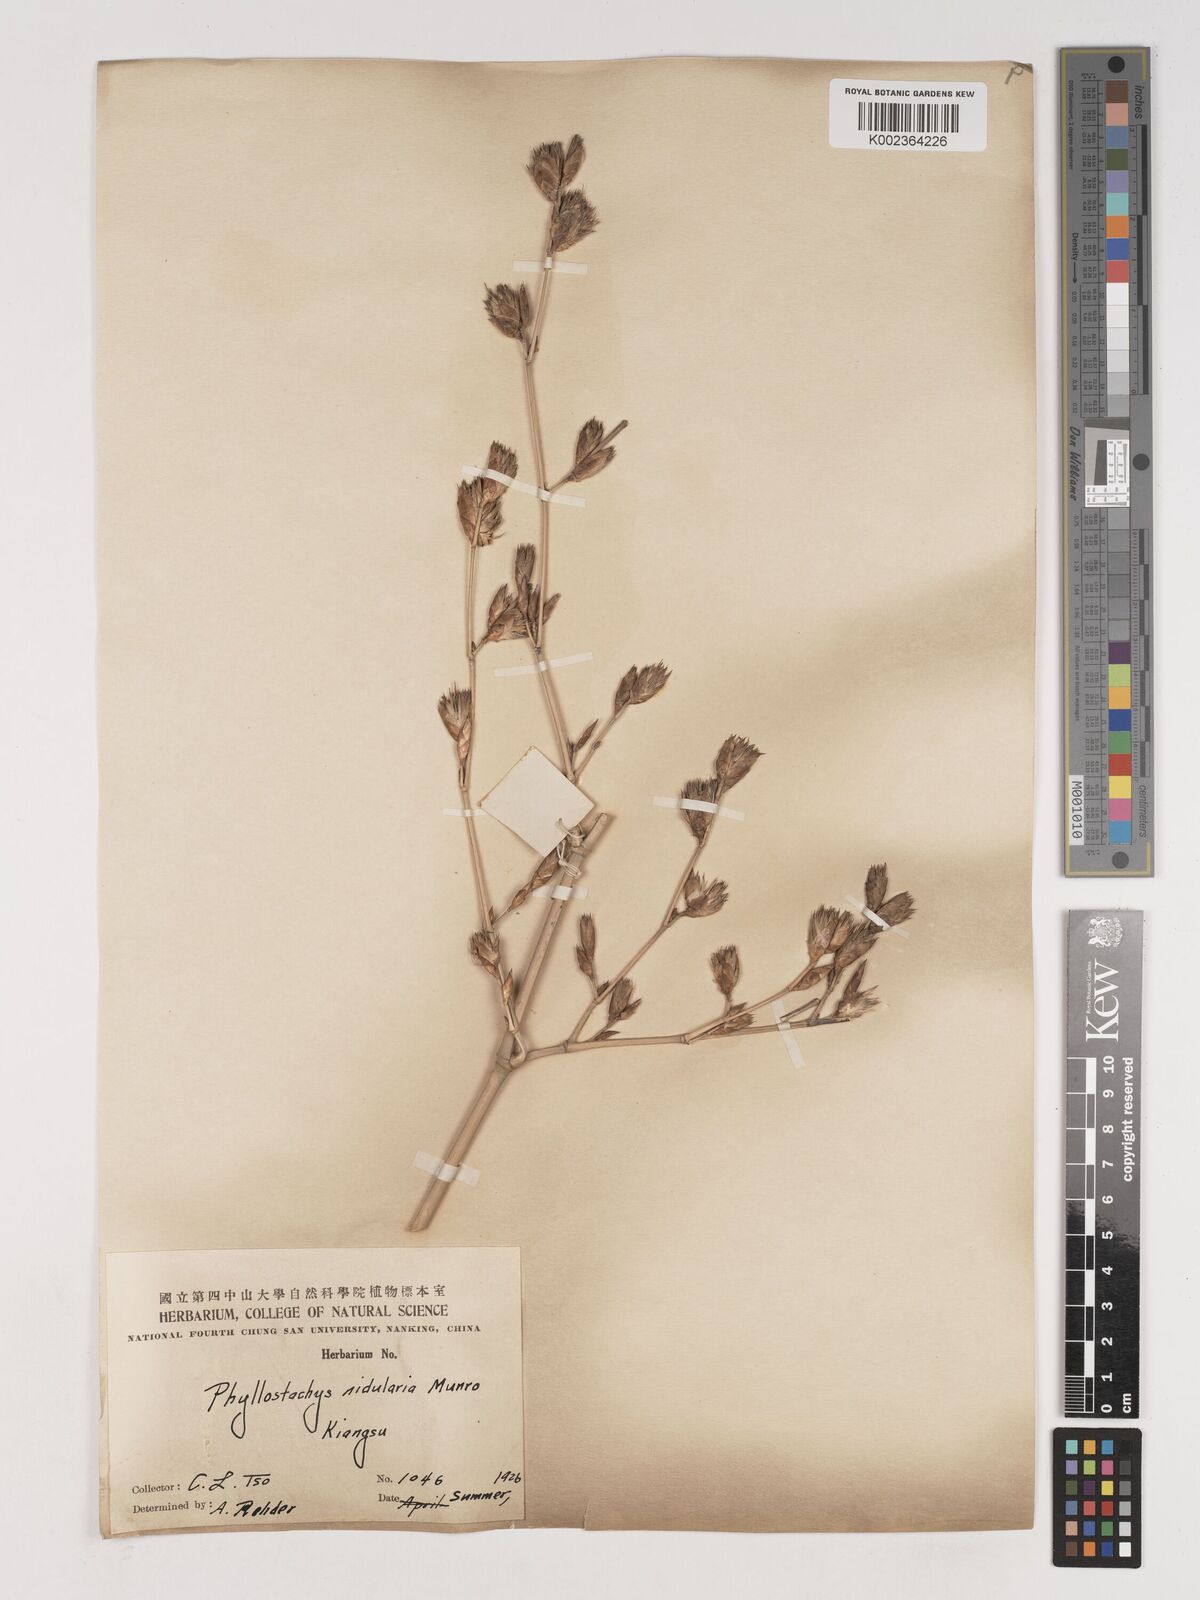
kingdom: Plantae
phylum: Tracheophyta
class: Liliopsida
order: Poales
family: Poaceae
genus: Phyllostachys
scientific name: Phyllostachys nidularia
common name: Broom bamboo
